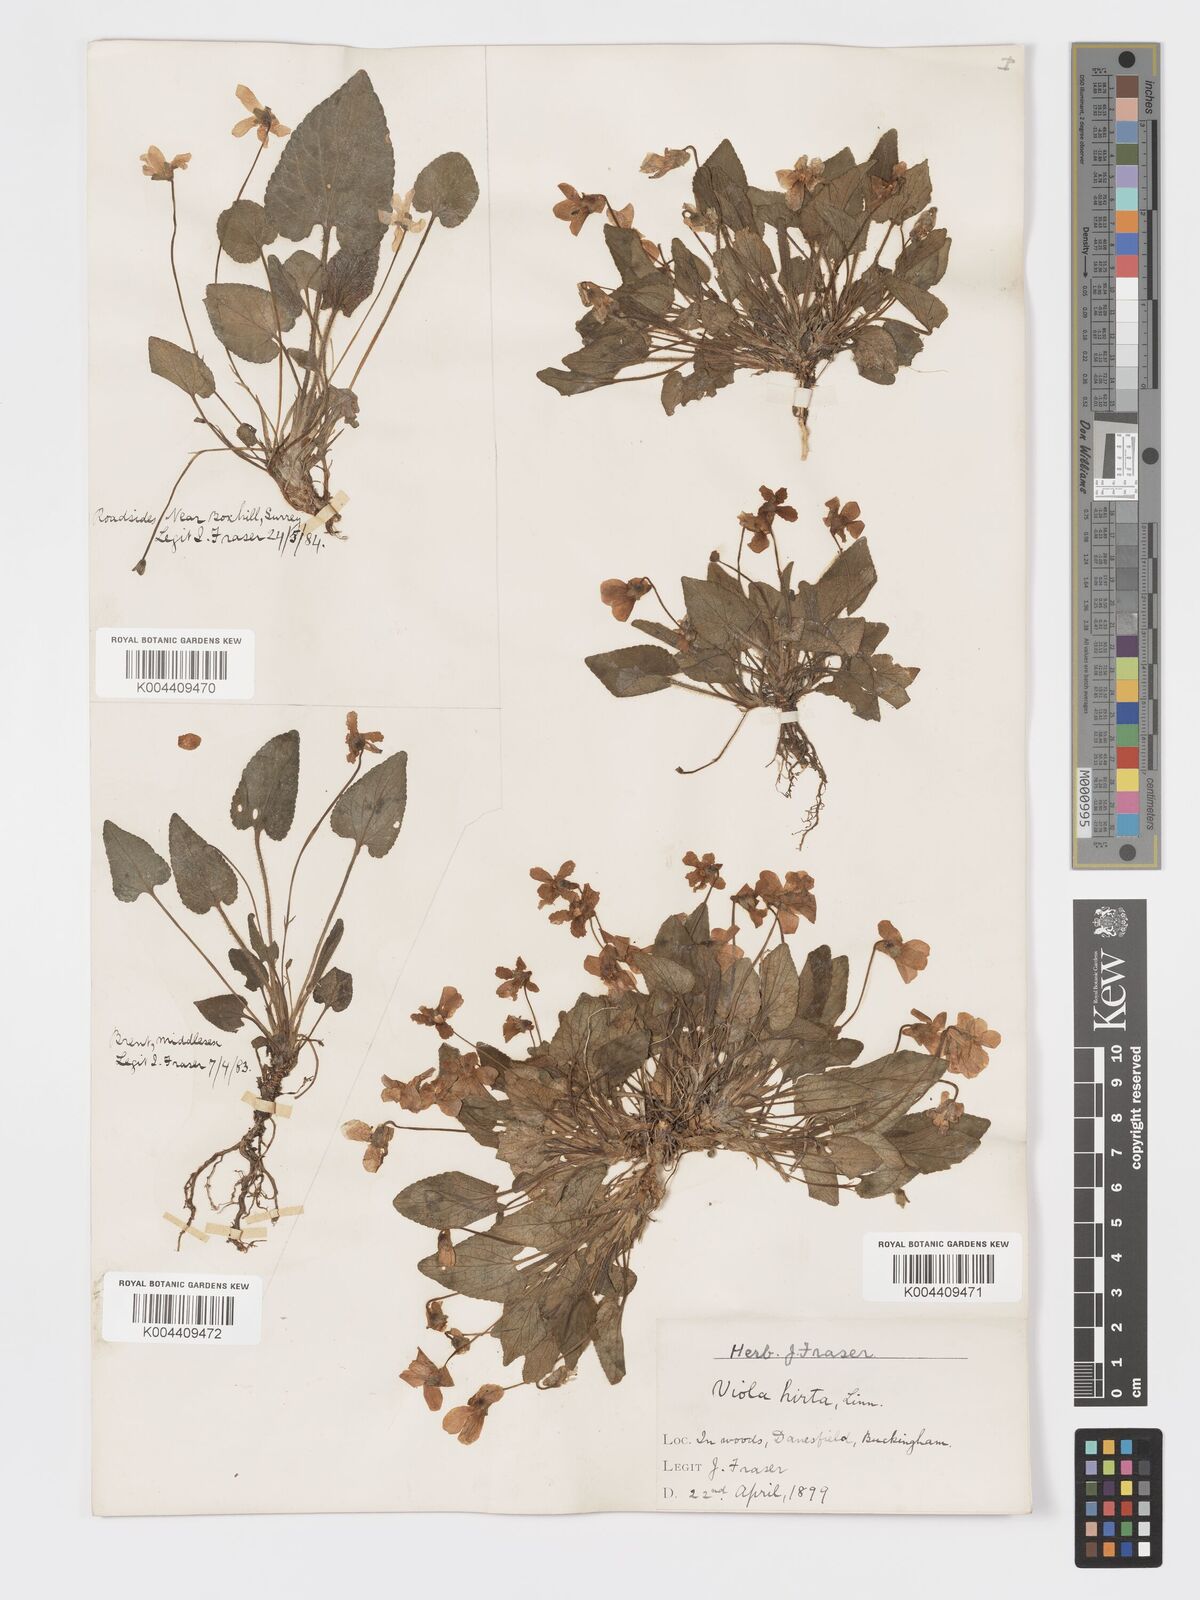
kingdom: Plantae
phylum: Tracheophyta
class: Magnoliopsida
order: Malpighiales
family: Violaceae
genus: Viola
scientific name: Viola
